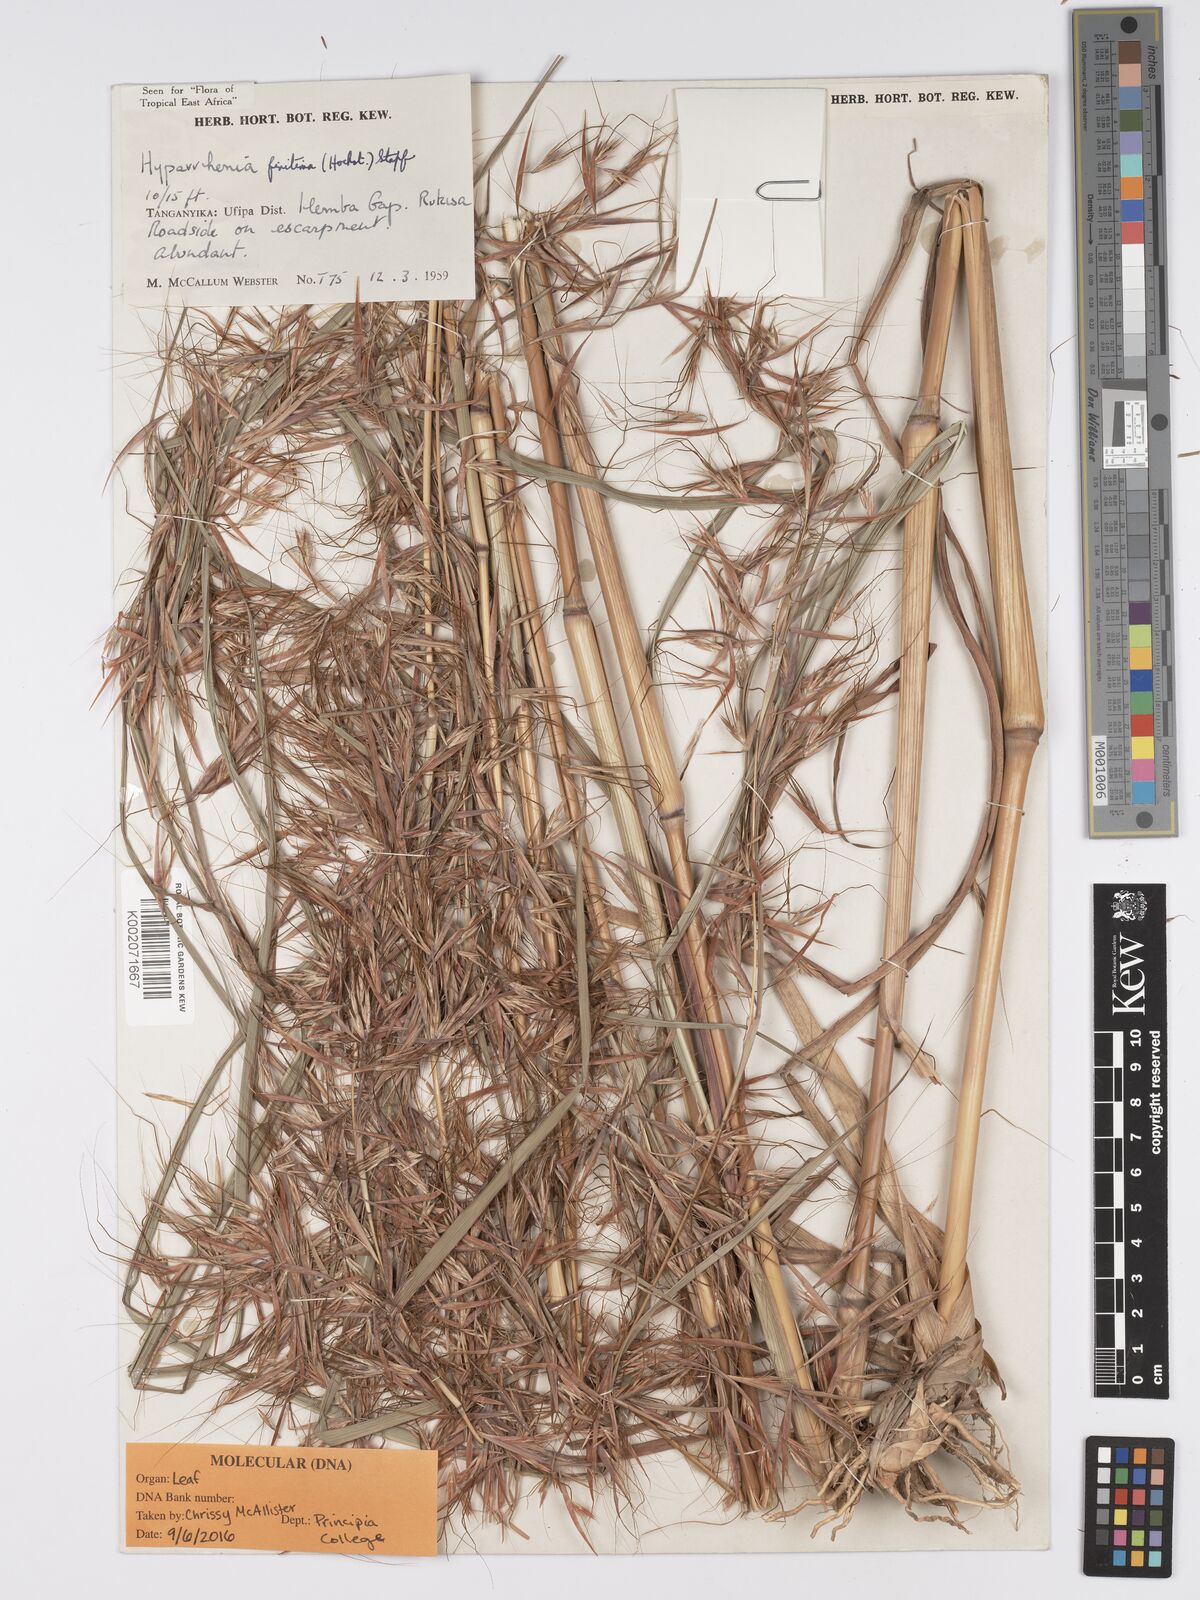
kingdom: Plantae
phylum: Tracheophyta
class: Liliopsida
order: Poales
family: Poaceae
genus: Hyparrhenia
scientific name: Hyparrhenia finitima
